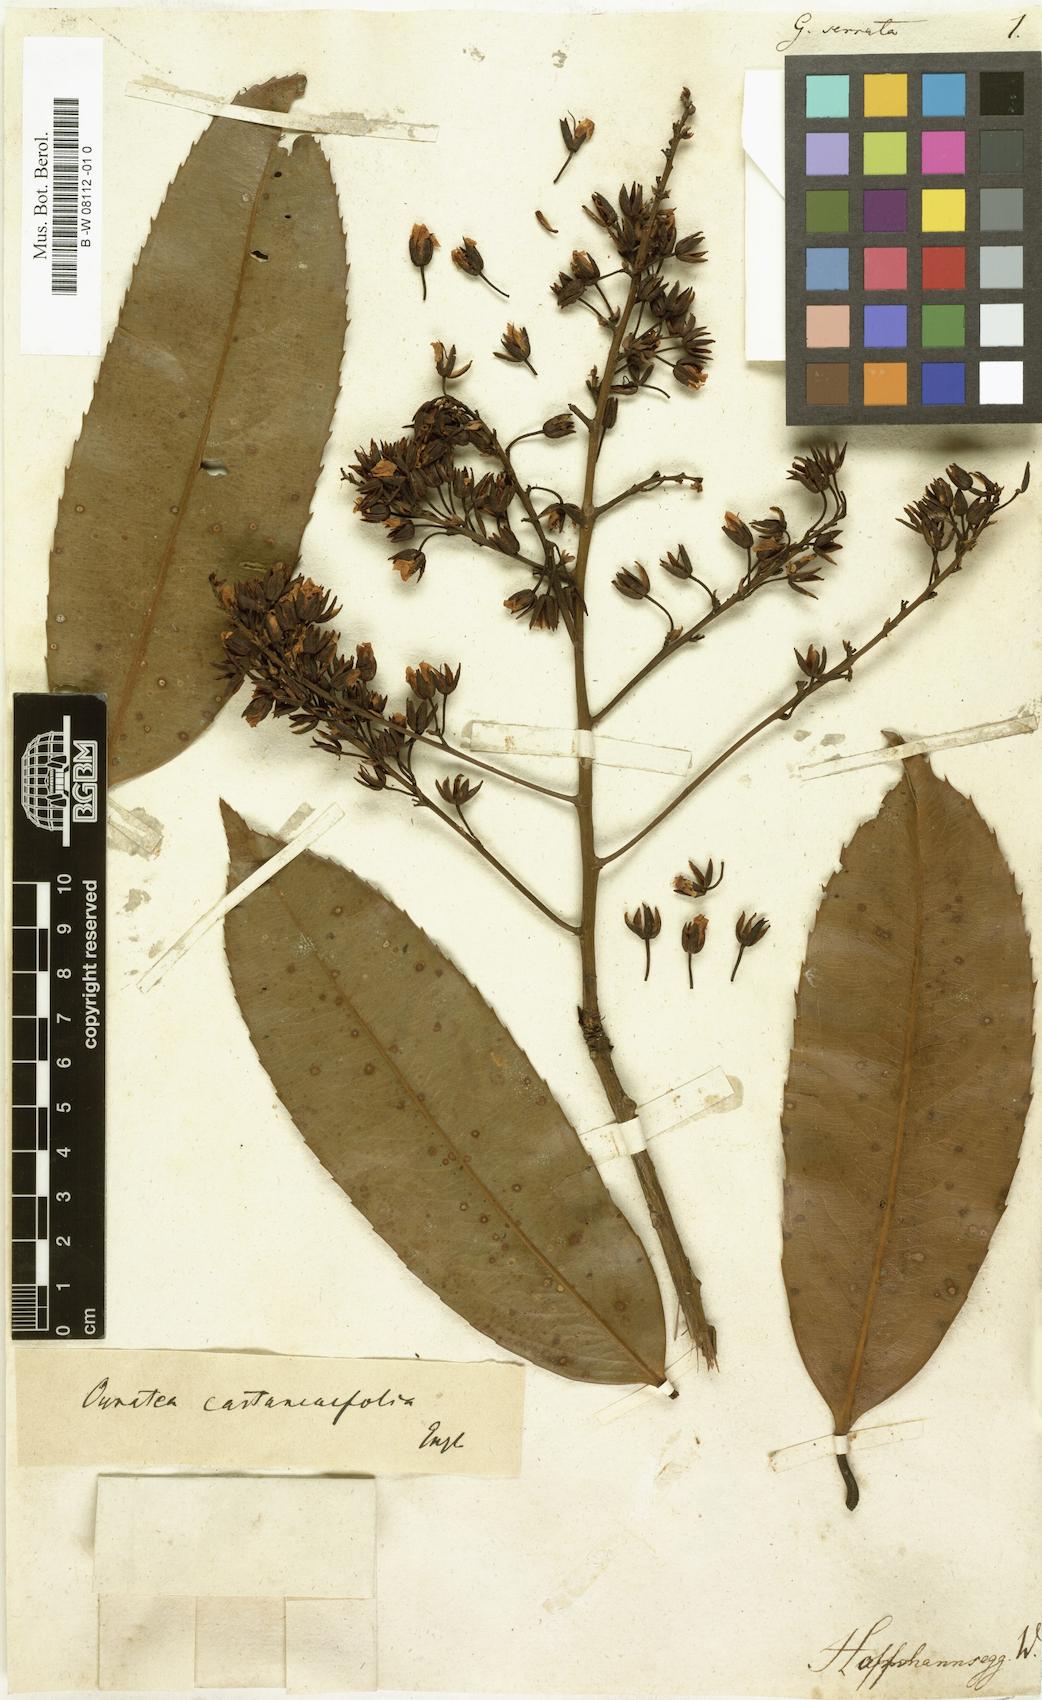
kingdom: Plantae
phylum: Tracheophyta
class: Magnoliopsida
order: Malpighiales
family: Ochnaceae
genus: Gomphia
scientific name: Gomphia serrata
